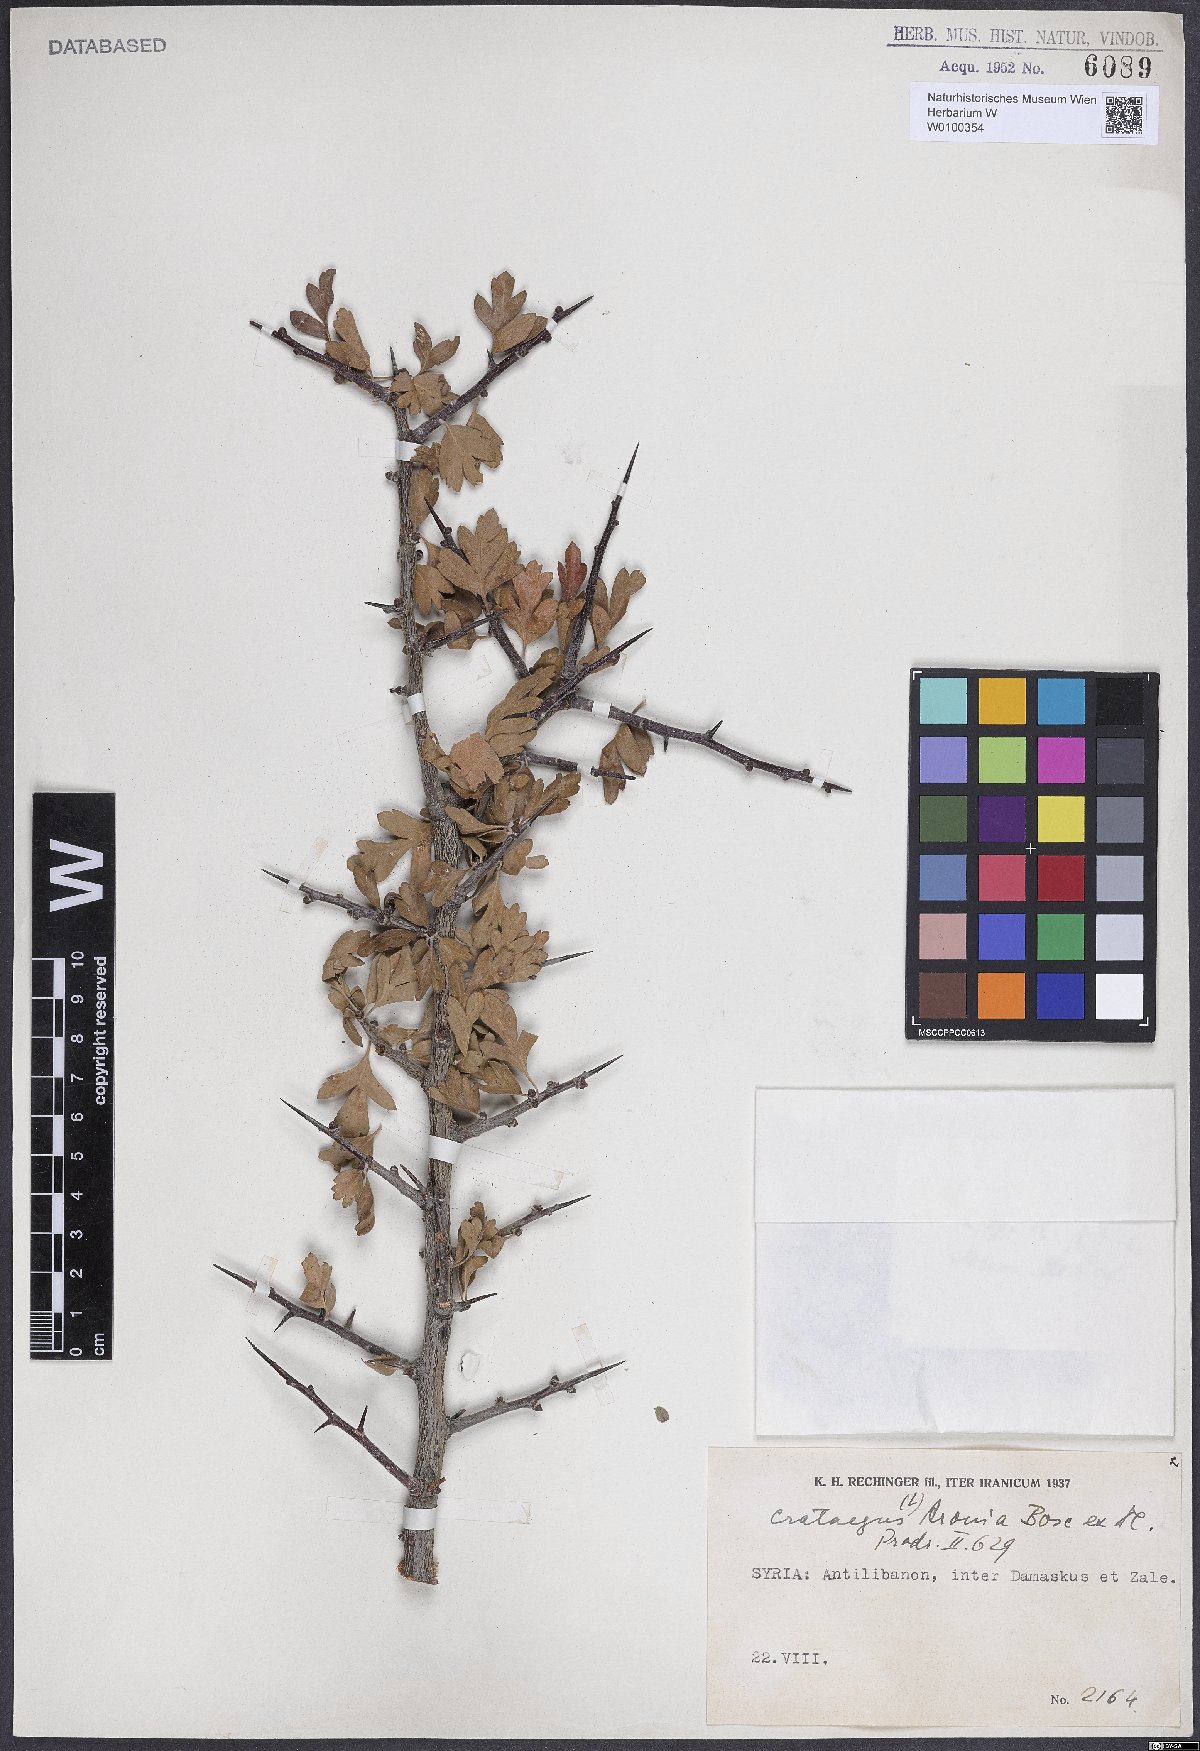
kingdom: Plantae
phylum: Tracheophyta
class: Magnoliopsida
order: Rosales
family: Rosaceae
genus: Crataegus
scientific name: Crataegus azarolus
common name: Azarole
